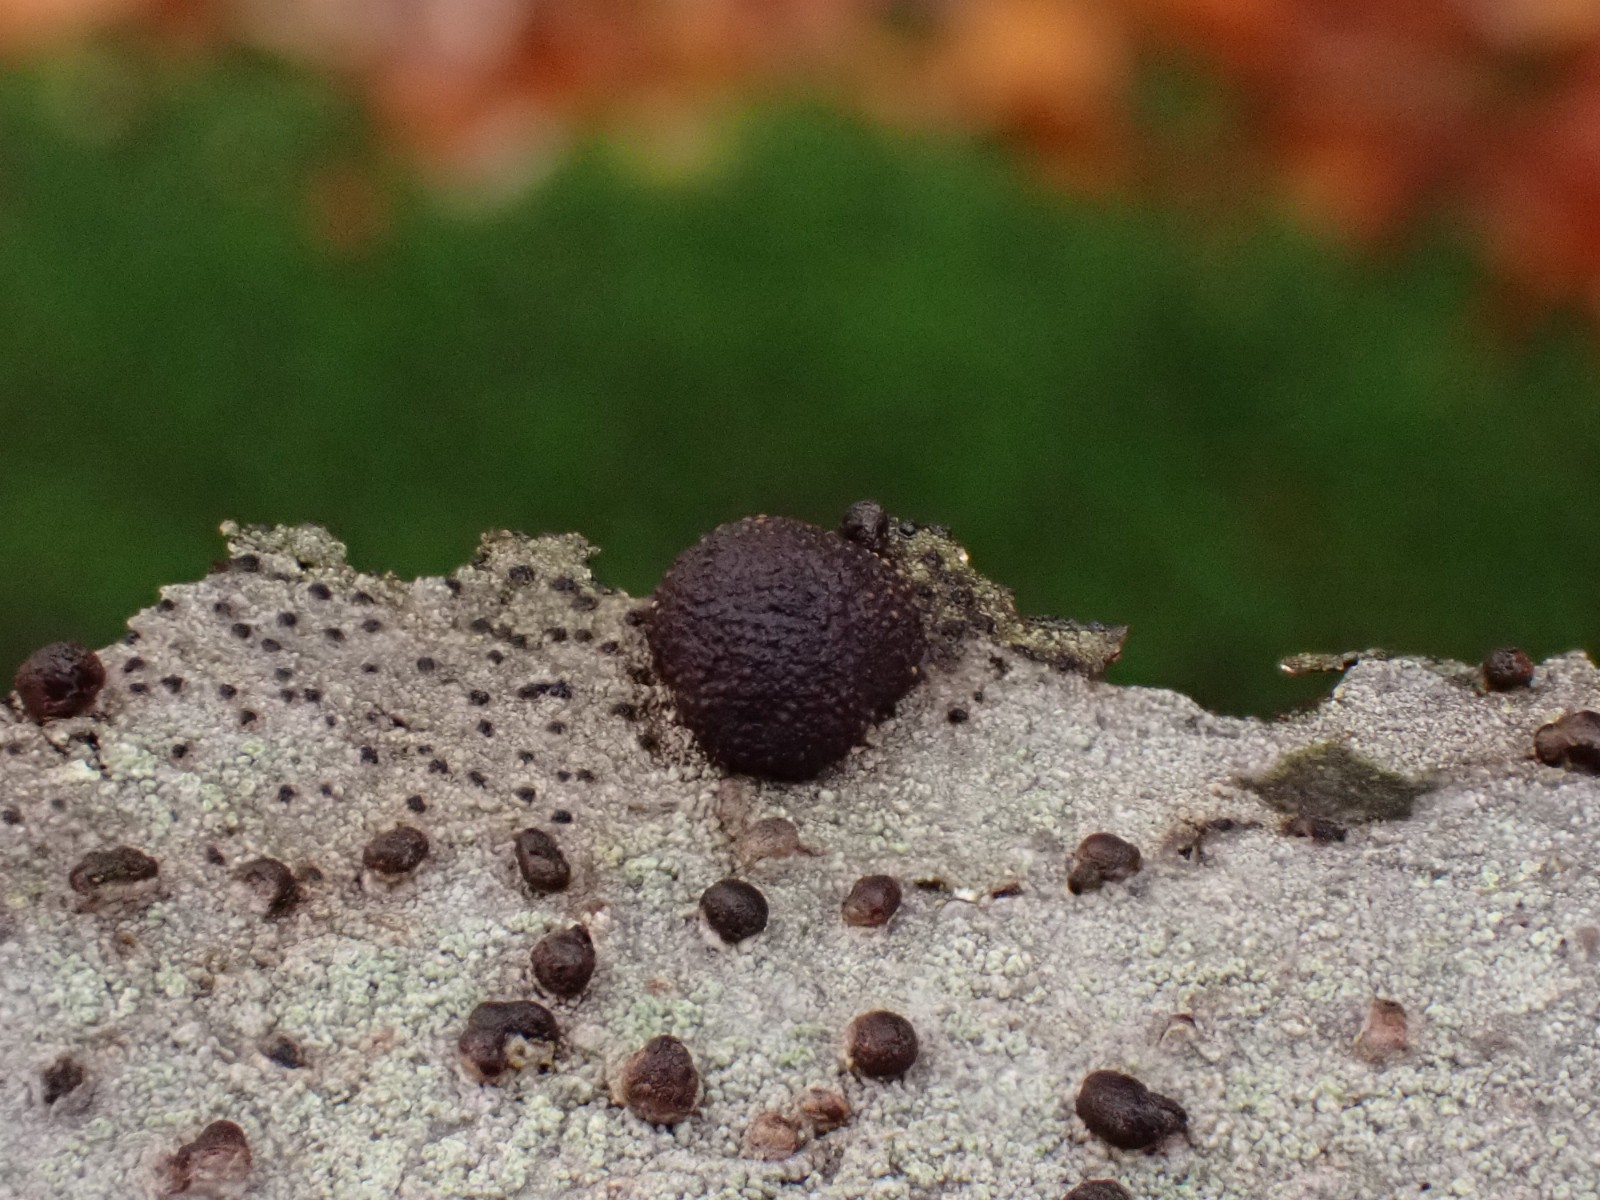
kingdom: Fungi
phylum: Ascomycota
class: Sordariomycetes
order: Xylariales
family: Hypoxylaceae
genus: Hypoxylon
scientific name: Hypoxylon fragiforme
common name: kuljordbær
